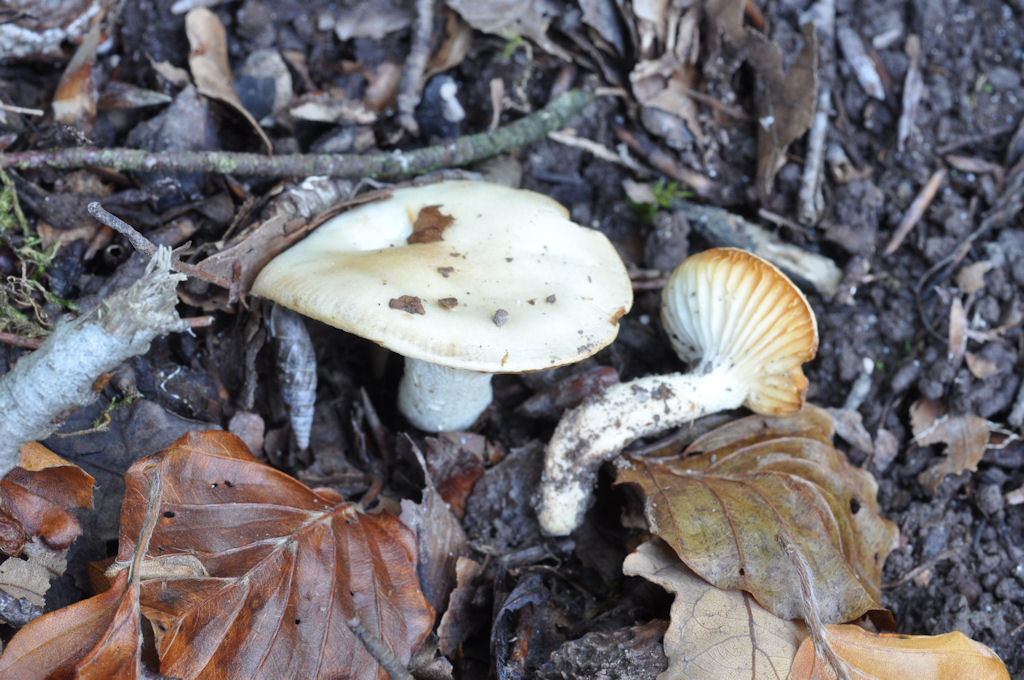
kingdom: Fungi
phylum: Basidiomycota
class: Agaricomycetes
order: Agaricales
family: Hygrophoraceae
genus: Hygrophorus
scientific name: Hygrophorus discoxanthus
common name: ildelugtende sneglehat
